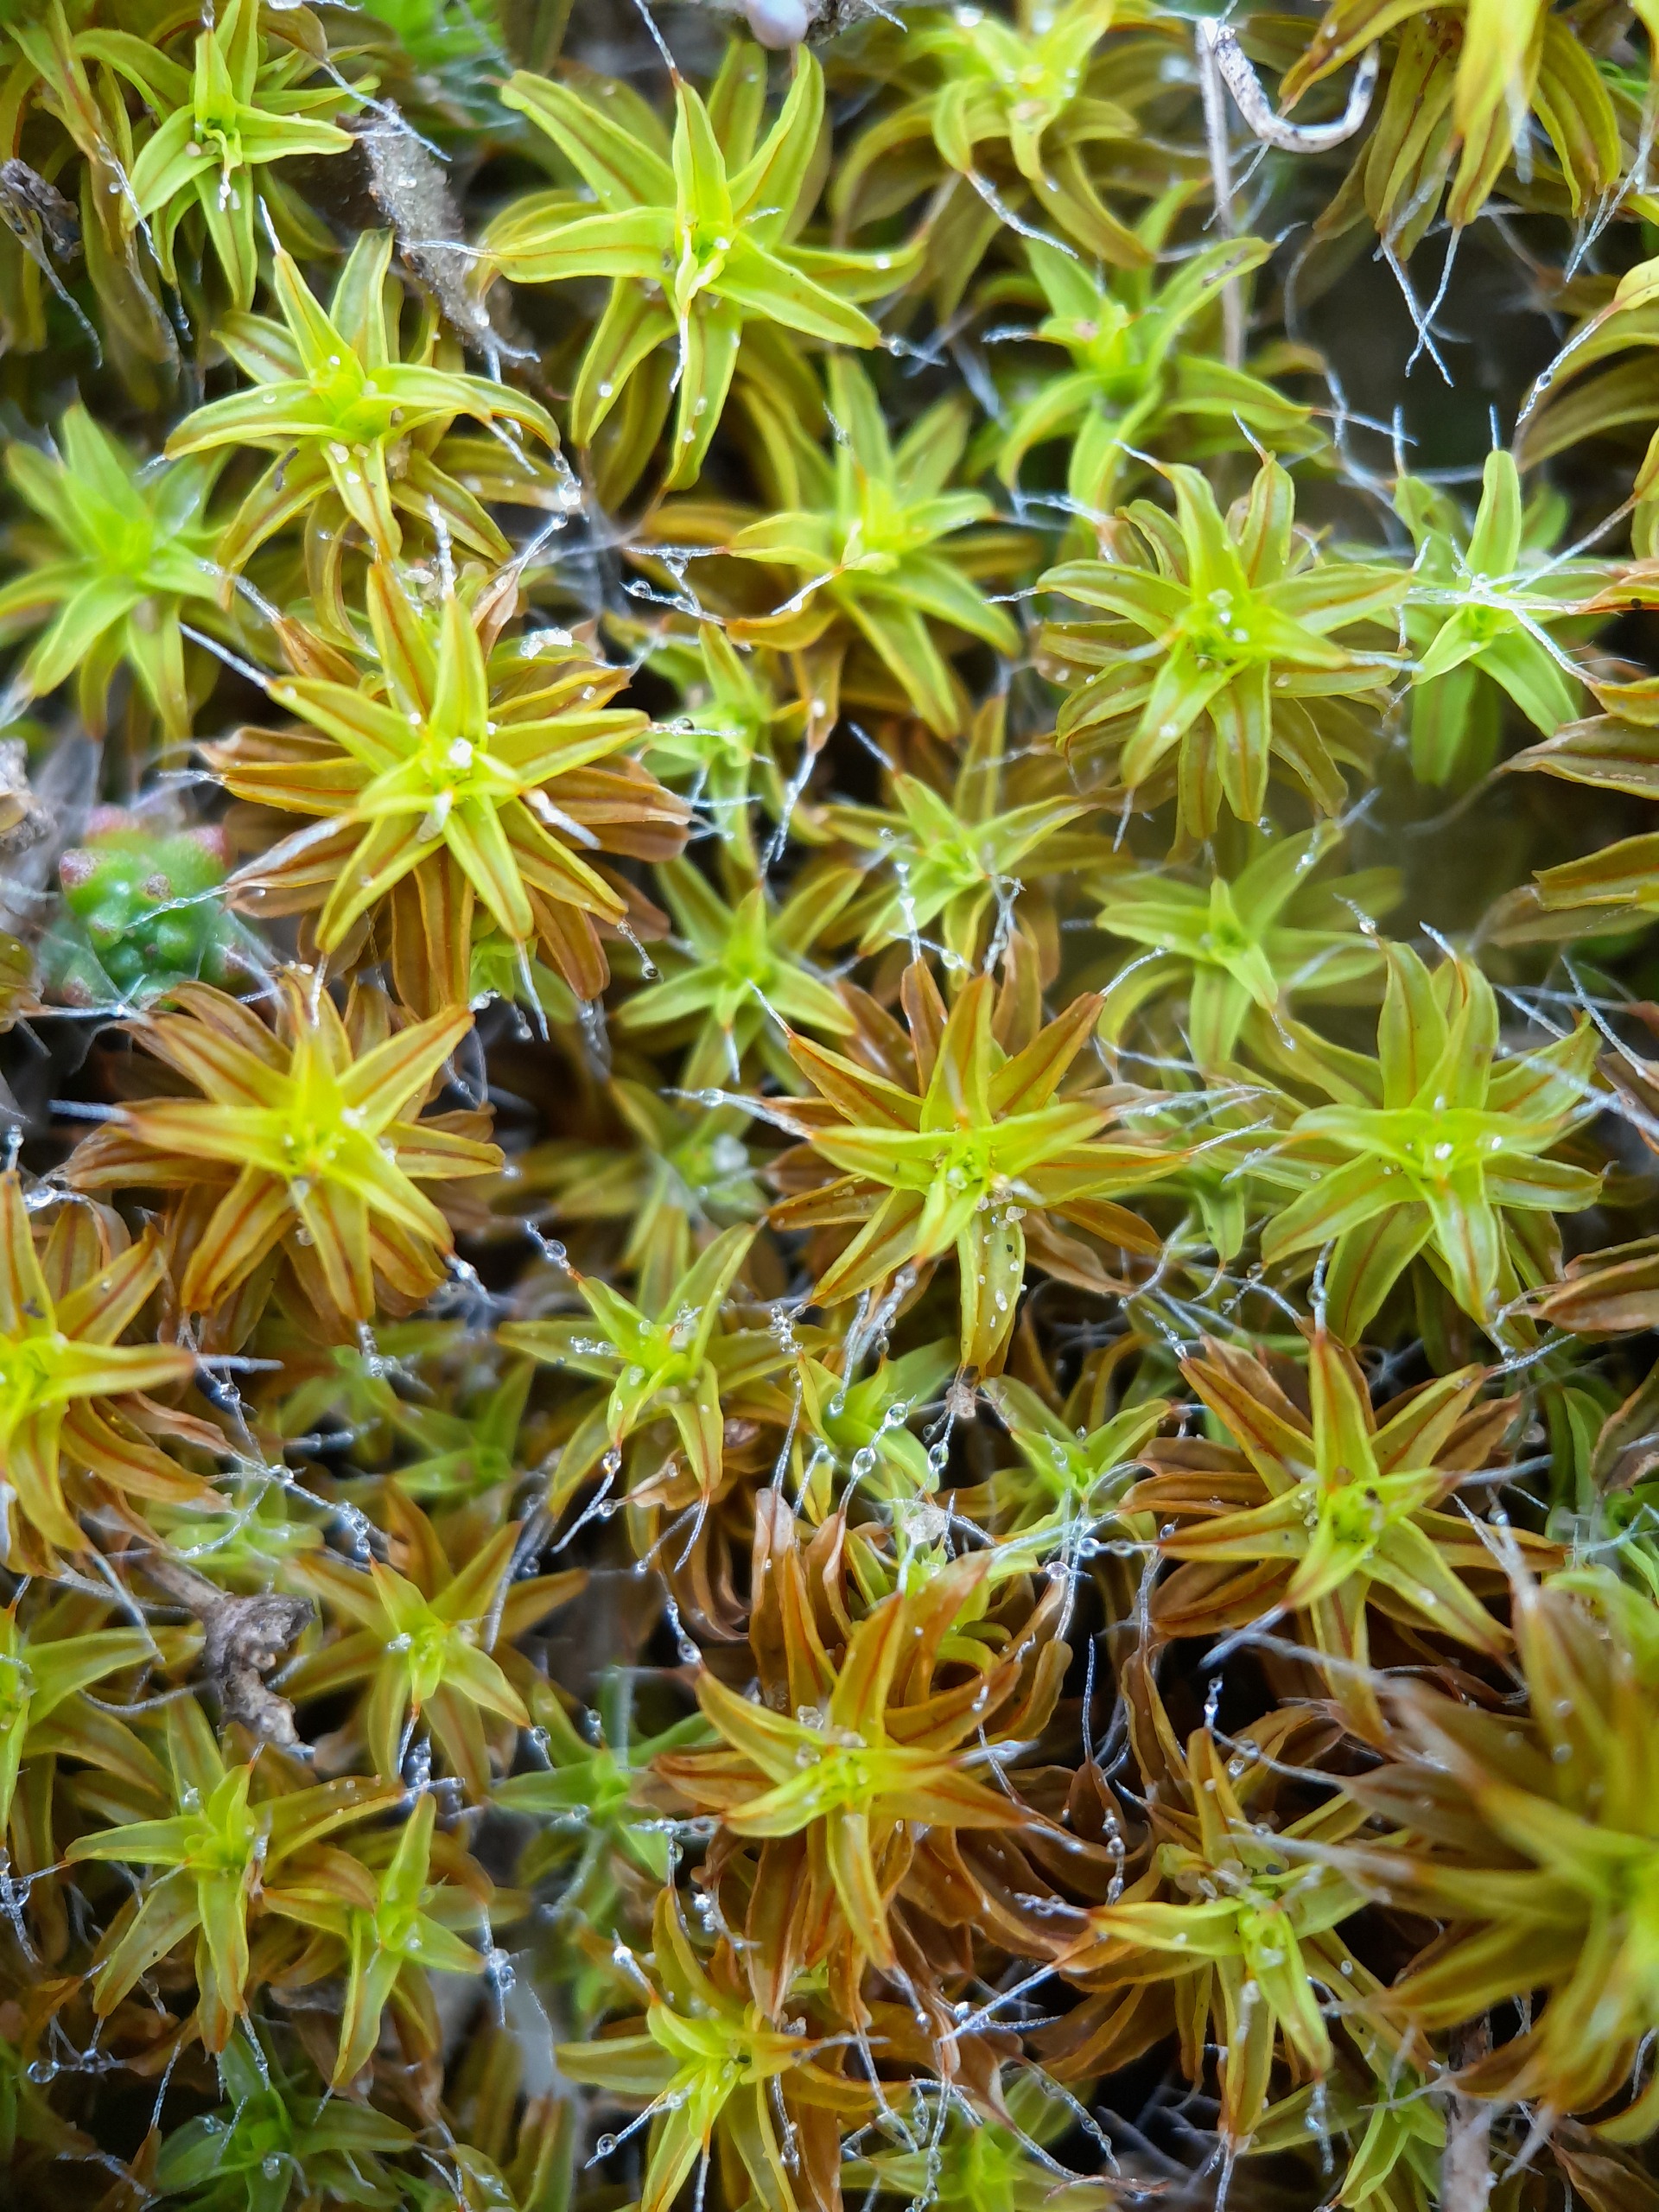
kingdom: Plantae
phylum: Bryophyta
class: Bryopsida
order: Pottiales
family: Pottiaceae
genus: Syntrichia
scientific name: Syntrichia ruralis
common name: Spidsbladet hårstjerne
